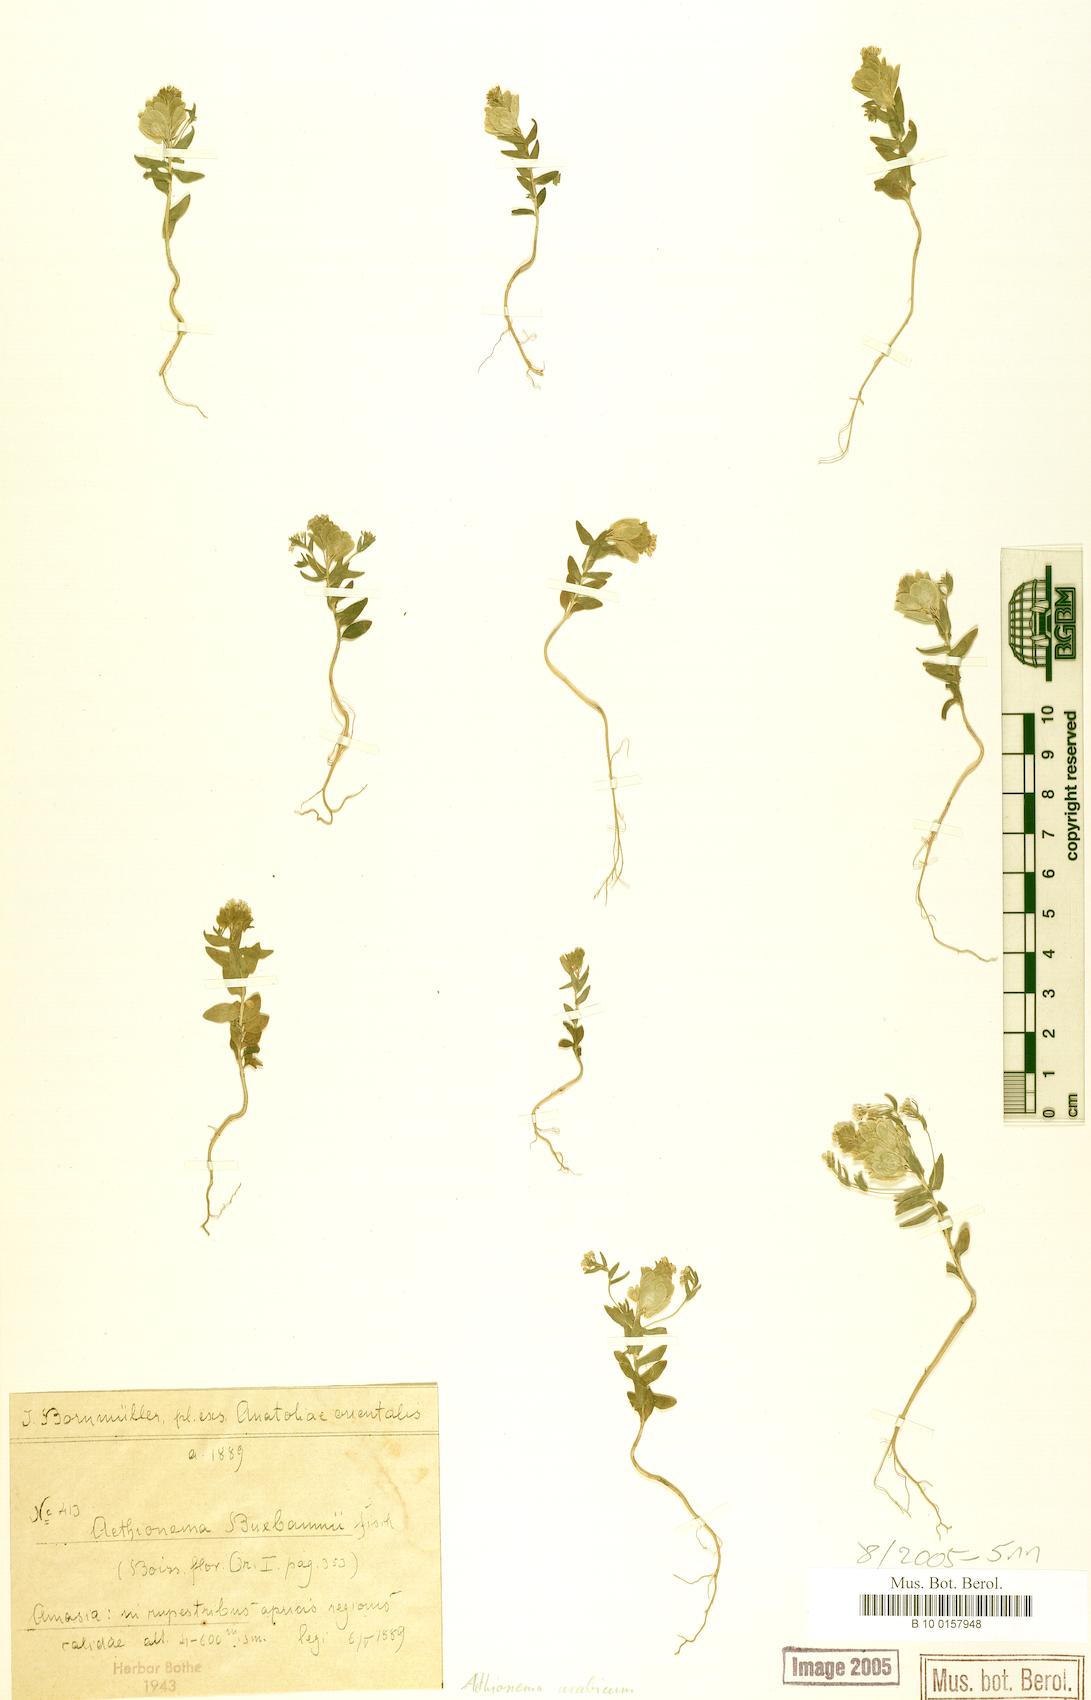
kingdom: Plantae
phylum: Tracheophyta
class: Magnoliopsida
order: Brassicales
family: Brassicaceae
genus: Aethionema
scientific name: Aethionema arabicum
